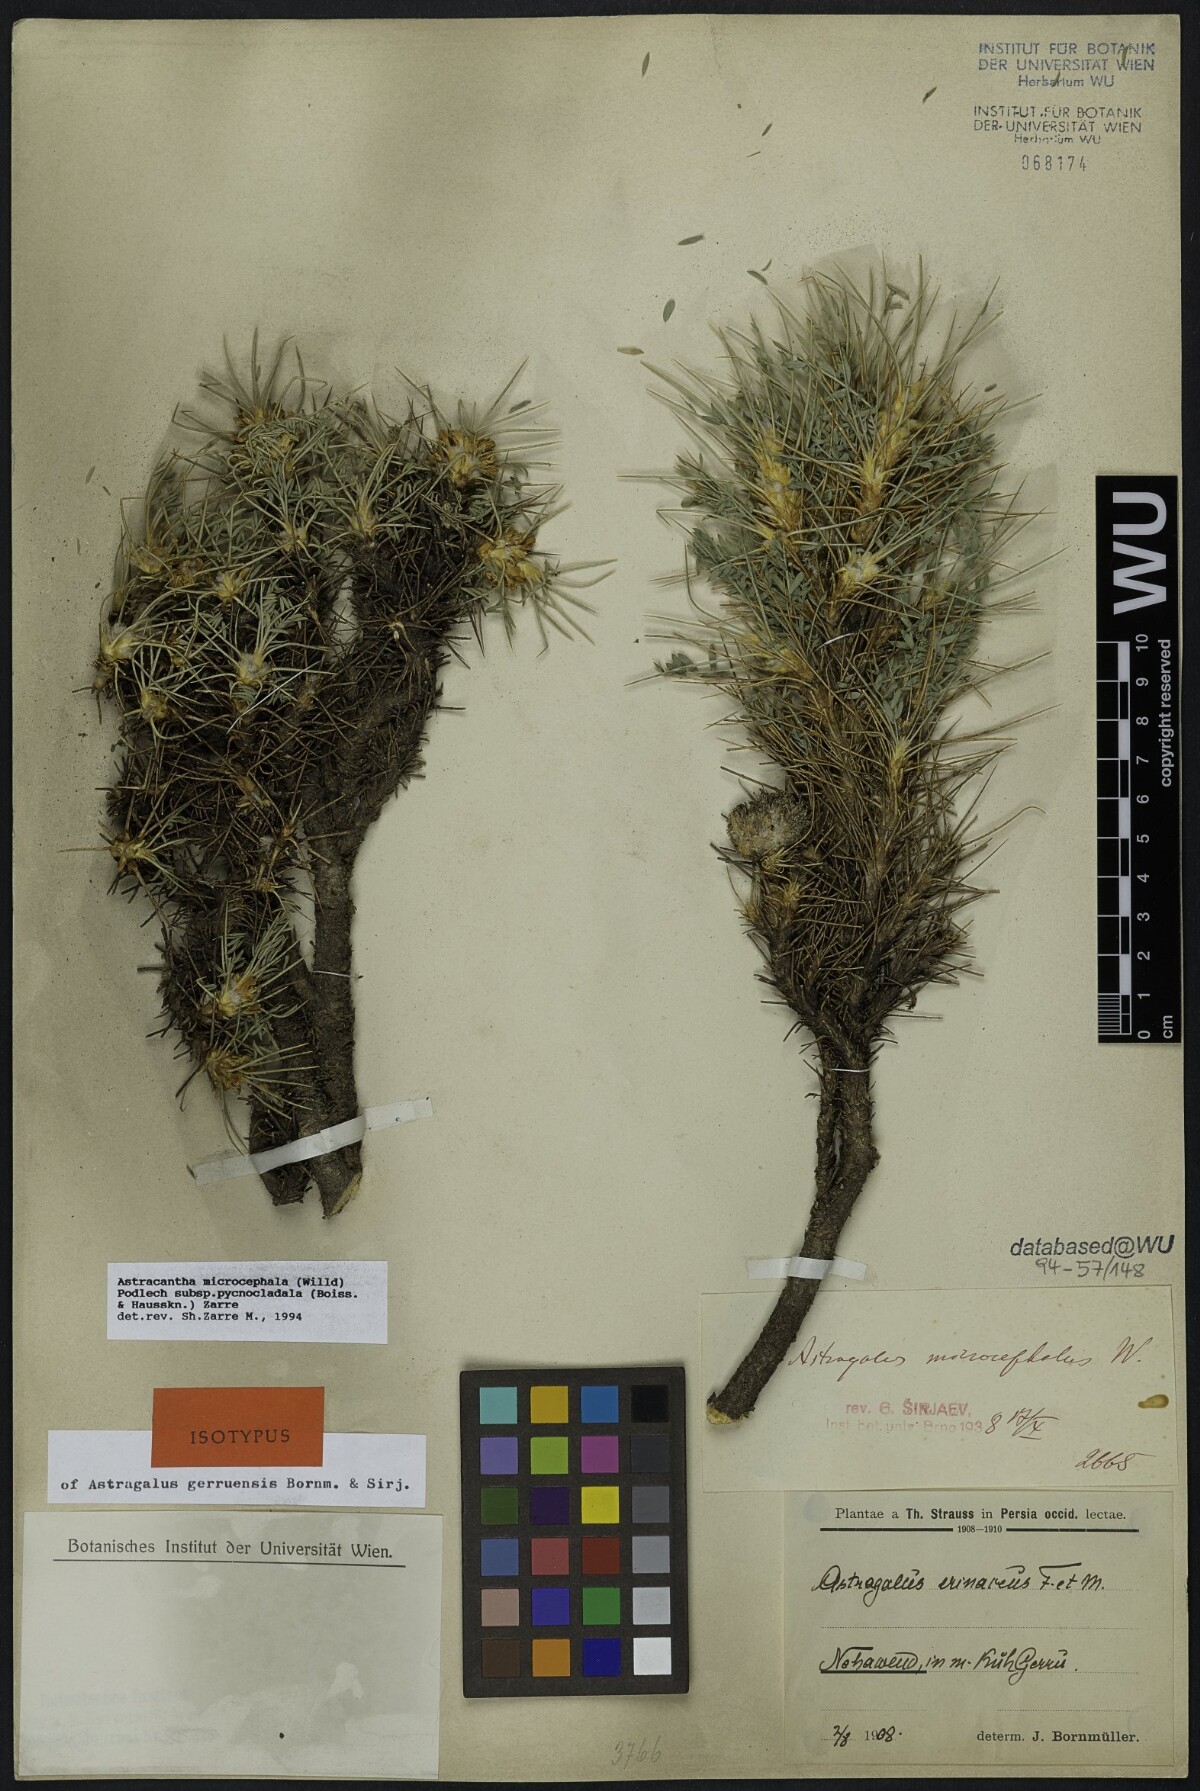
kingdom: Plantae
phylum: Tracheophyta
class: Magnoliopsida
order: Fabales
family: Fabaceae
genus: Astragalus
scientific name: Astragalus microcephalus
